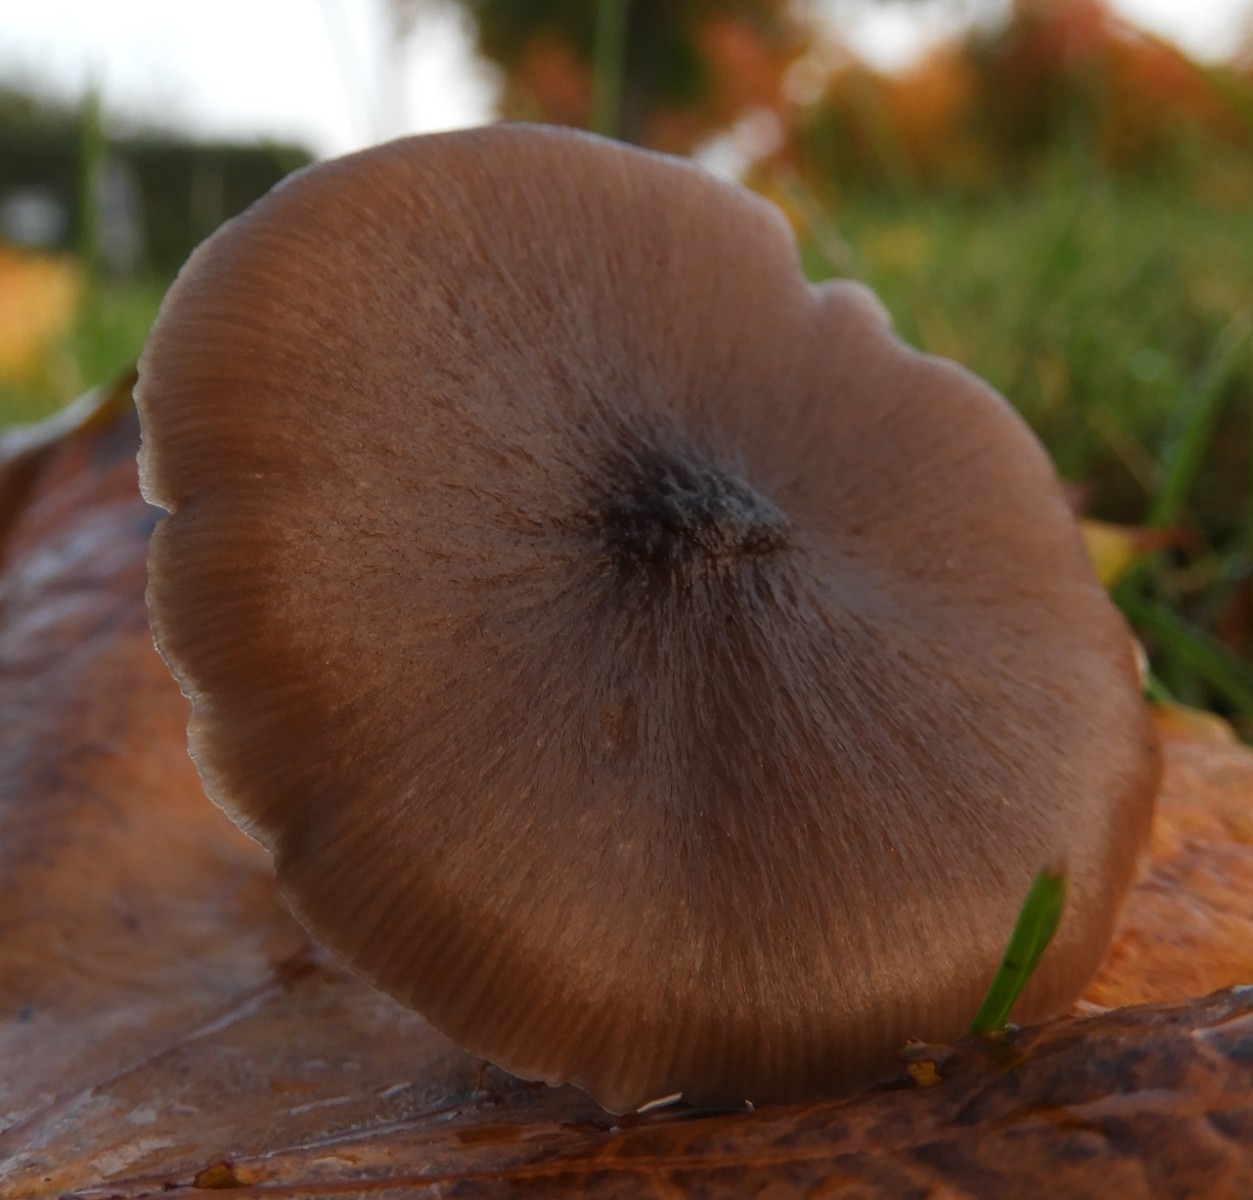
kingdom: Fungi
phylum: Basidiomycota
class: Agaricomycetes
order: Agaricales
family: Entolomataceae
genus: Entoloma
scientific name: Entoloma
